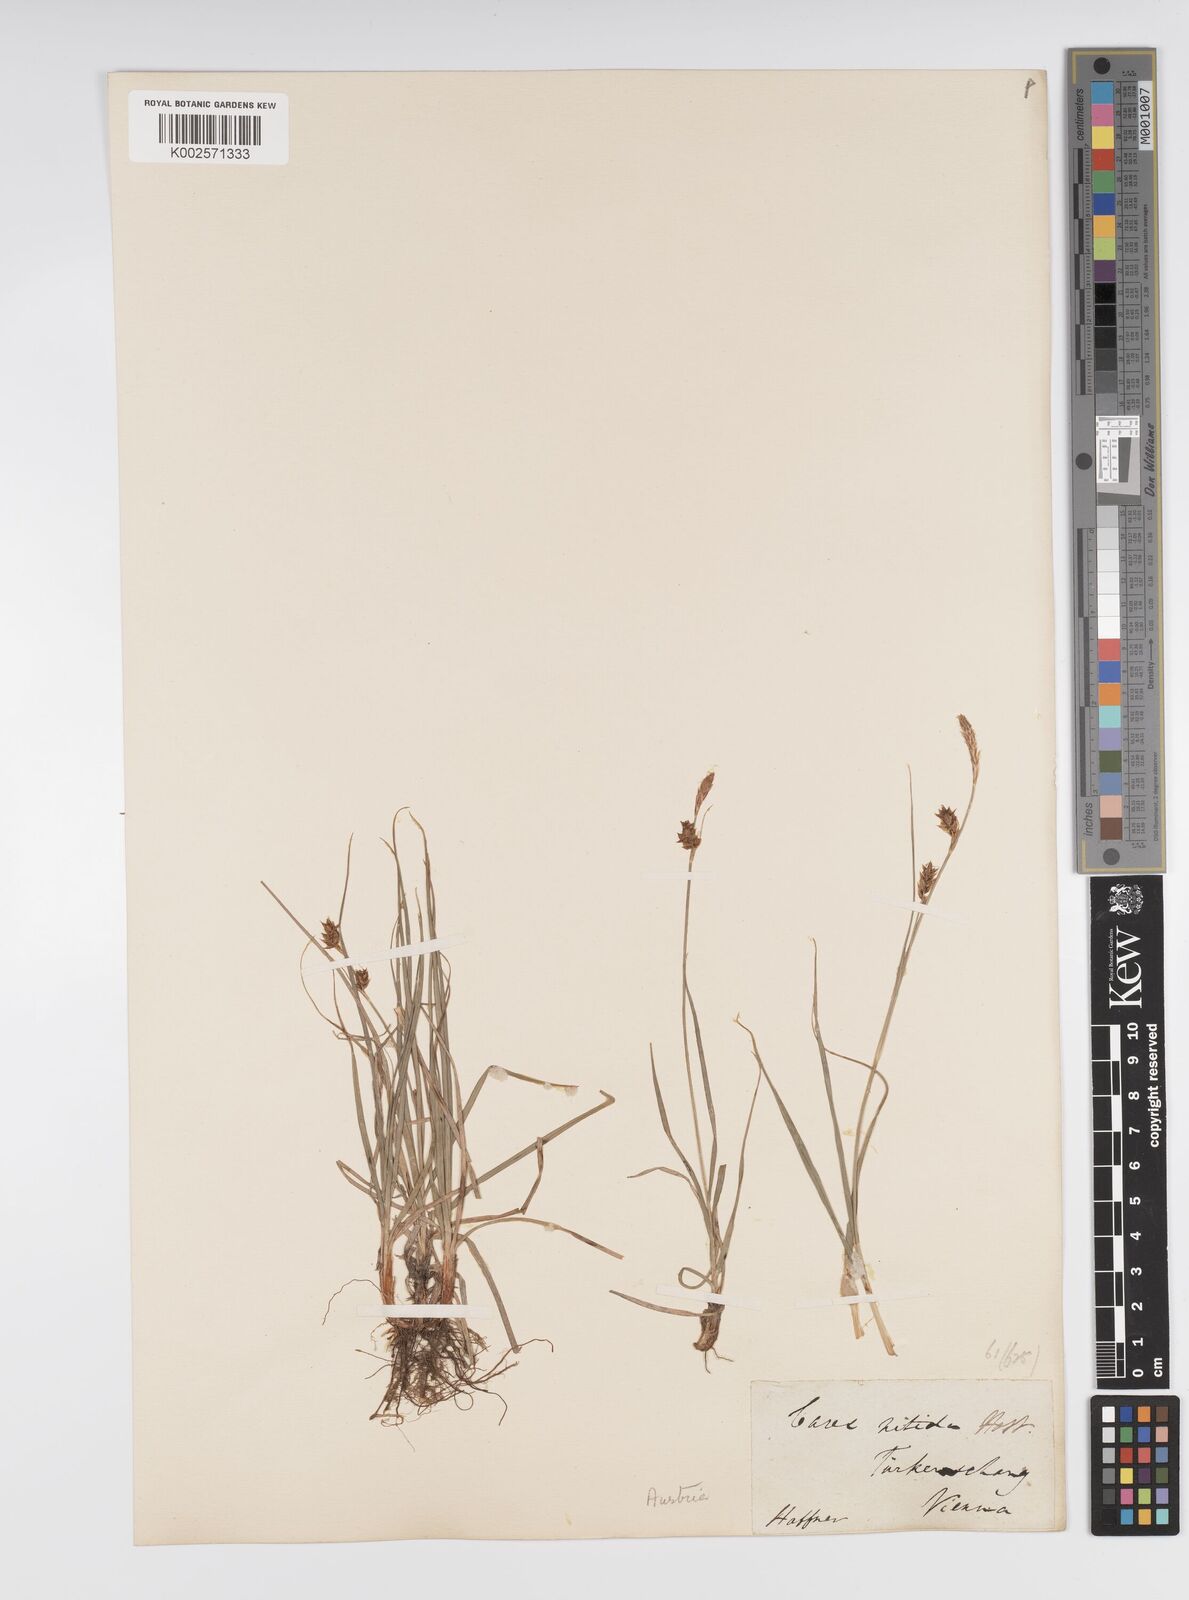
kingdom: Plantae
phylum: Tracheophyta
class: Liliopsida
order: Poales
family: Cyperaceae
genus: Carex
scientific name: Carex liparocarpos
